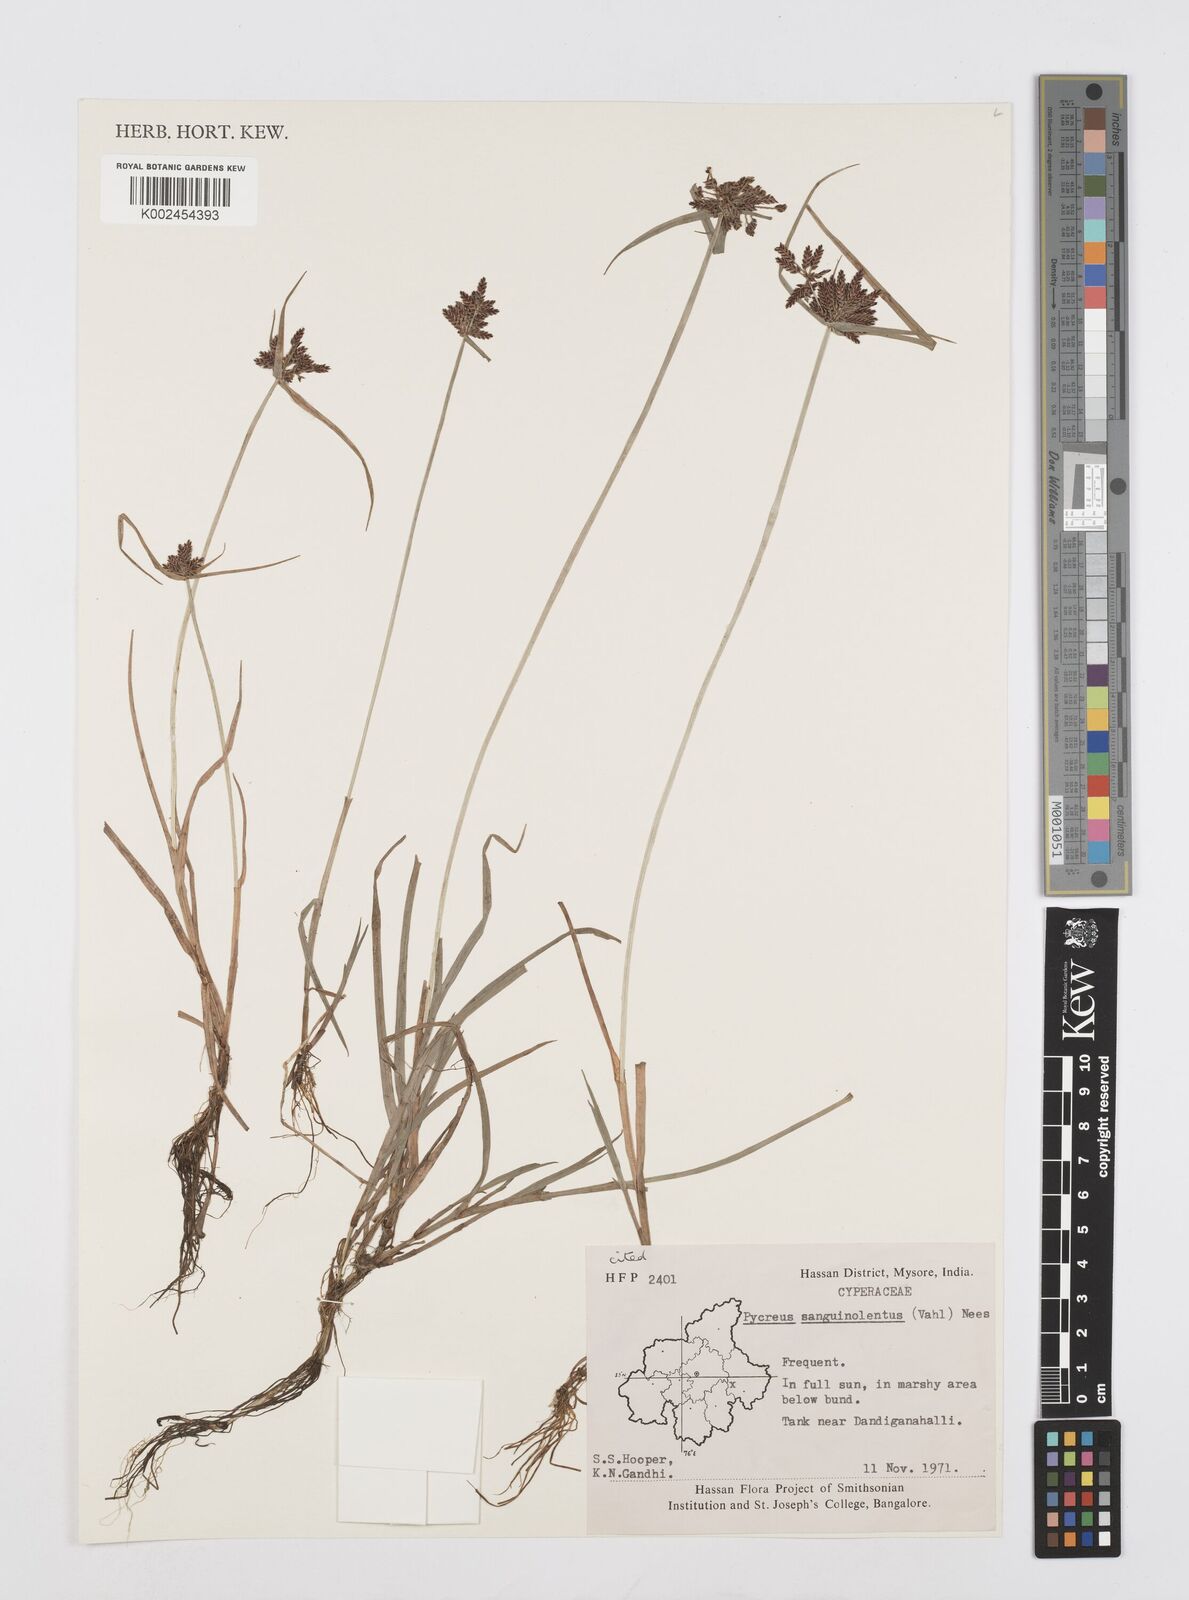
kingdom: Plantae
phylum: Tracheophyta
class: Liliopsida
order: Poales
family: Cyperaceae
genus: Cyperus
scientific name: Cyperus sanguinolentus
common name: Purpleglume flatsedge
